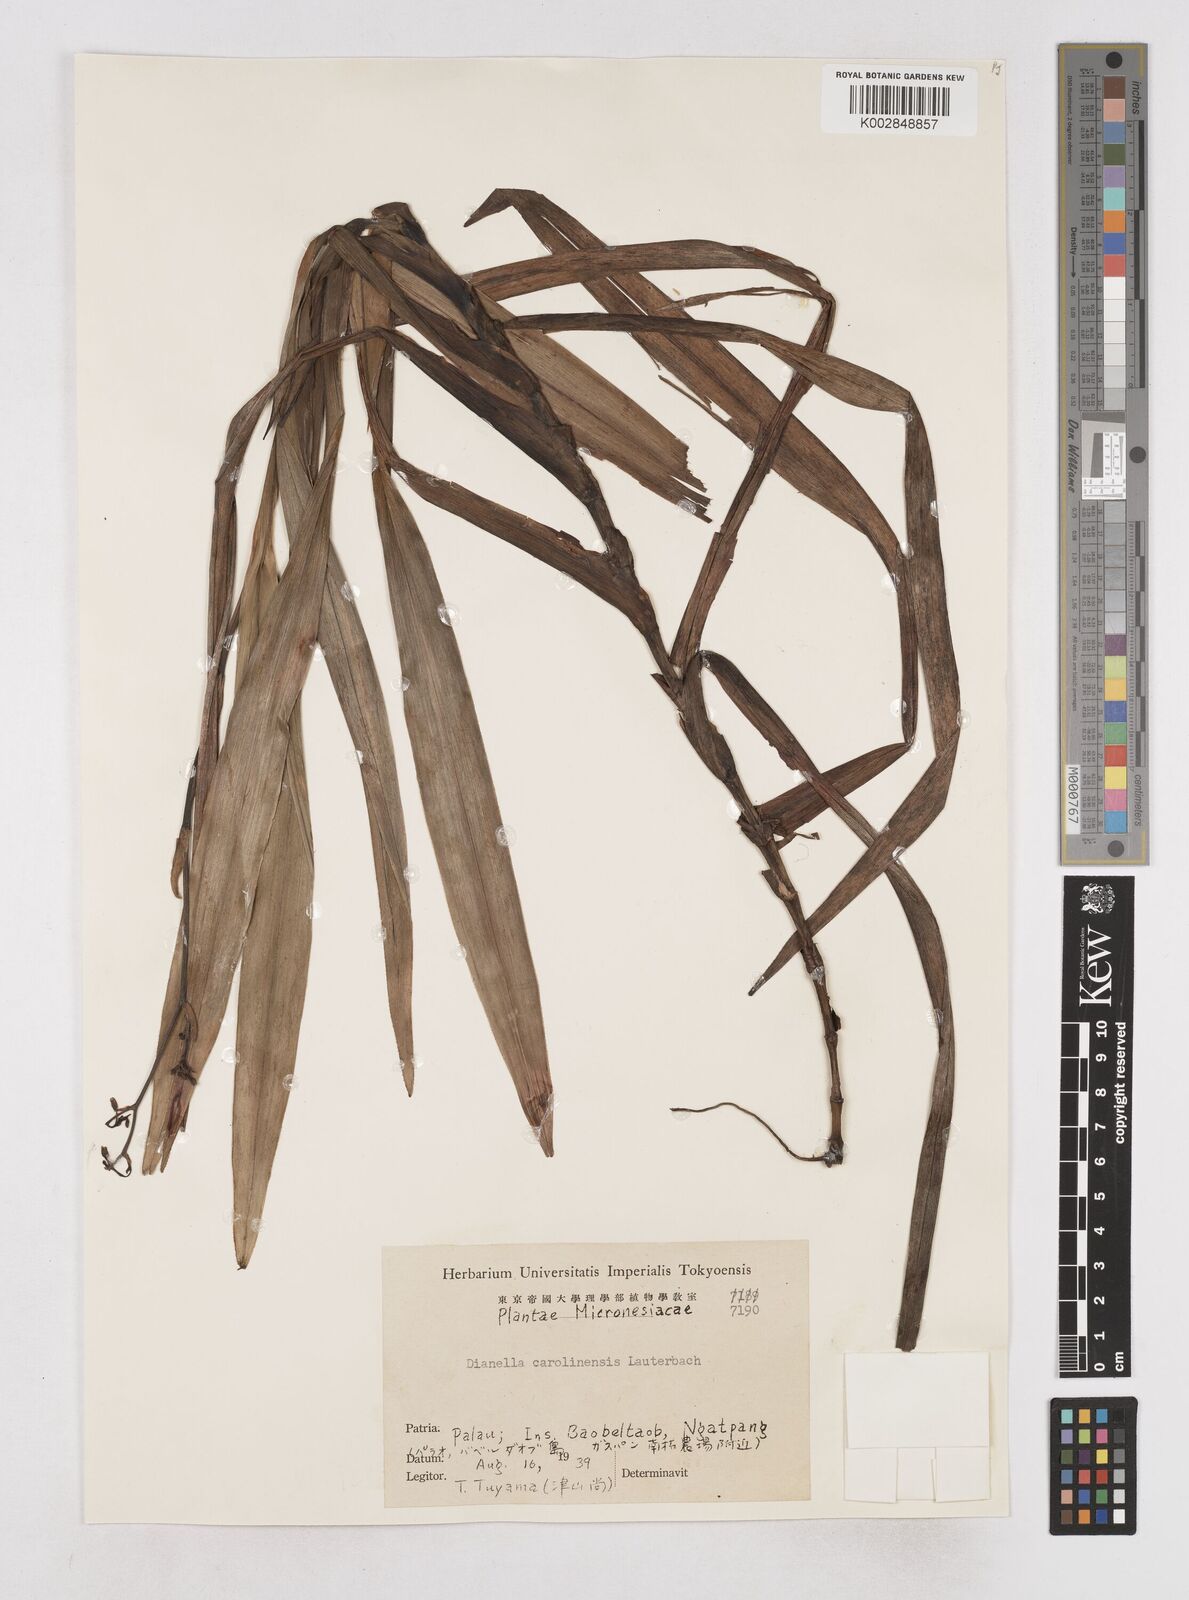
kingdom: Plantae
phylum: Tracheophyta
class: Liliopsida
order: Asparagales
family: Asphodelaceae
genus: Dianella
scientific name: Dianella carolinensis
